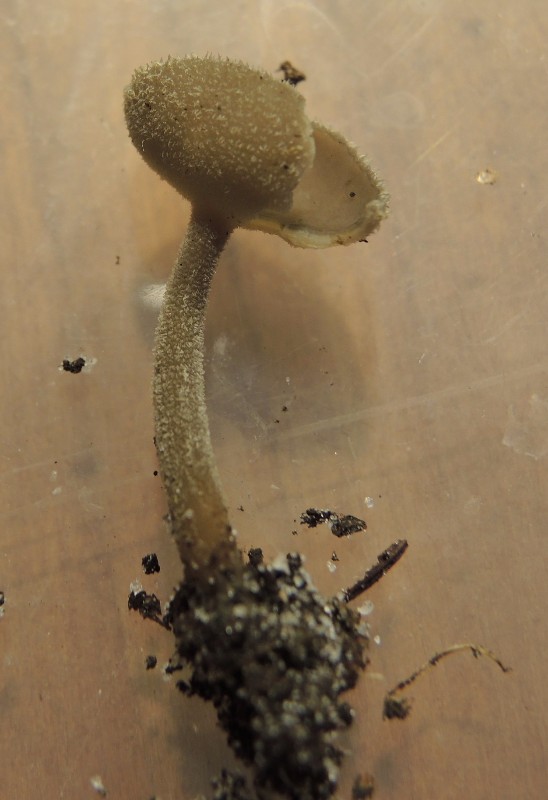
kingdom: Fungi
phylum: Ascomycota
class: Pezizomycetes
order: Pezizales
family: Helvellaceae
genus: Helvella
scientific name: Helvella macropus
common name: højstokket foldhat
